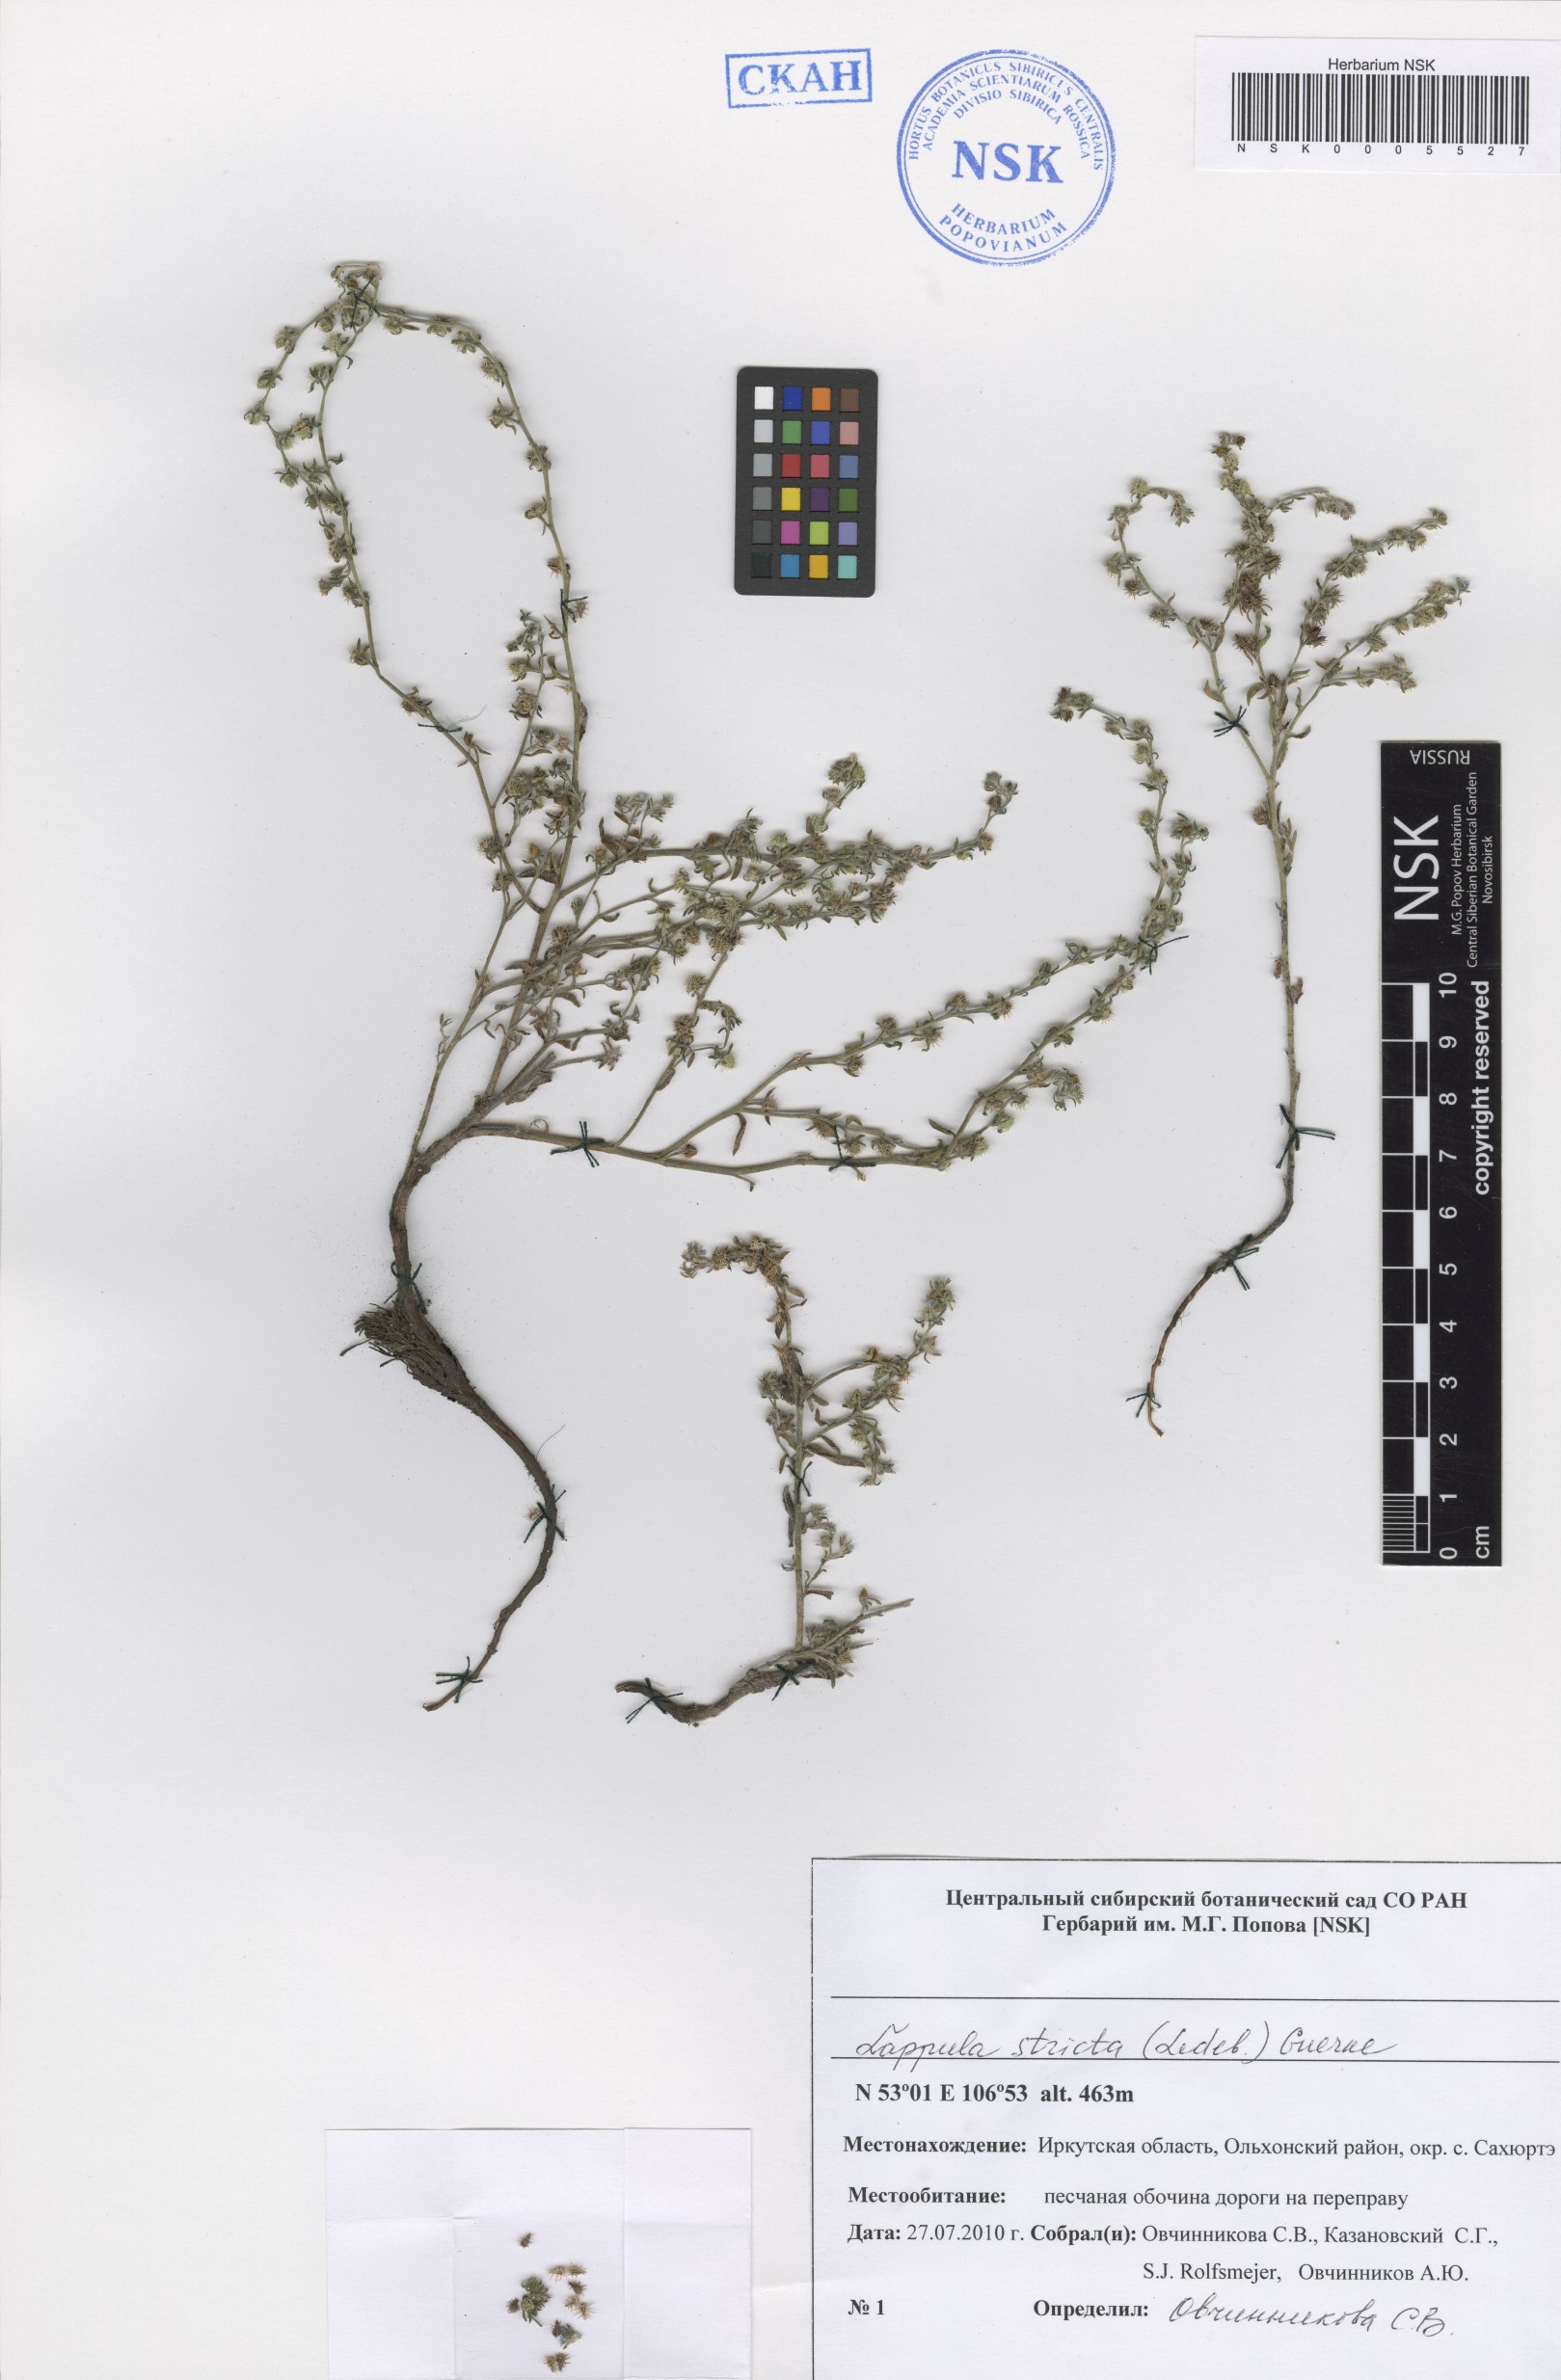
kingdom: Plantae
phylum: Tracheophyta
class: Magnoliopsida
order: Boraginales
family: Boraginaceae
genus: Lappula
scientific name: Lappula stricta
